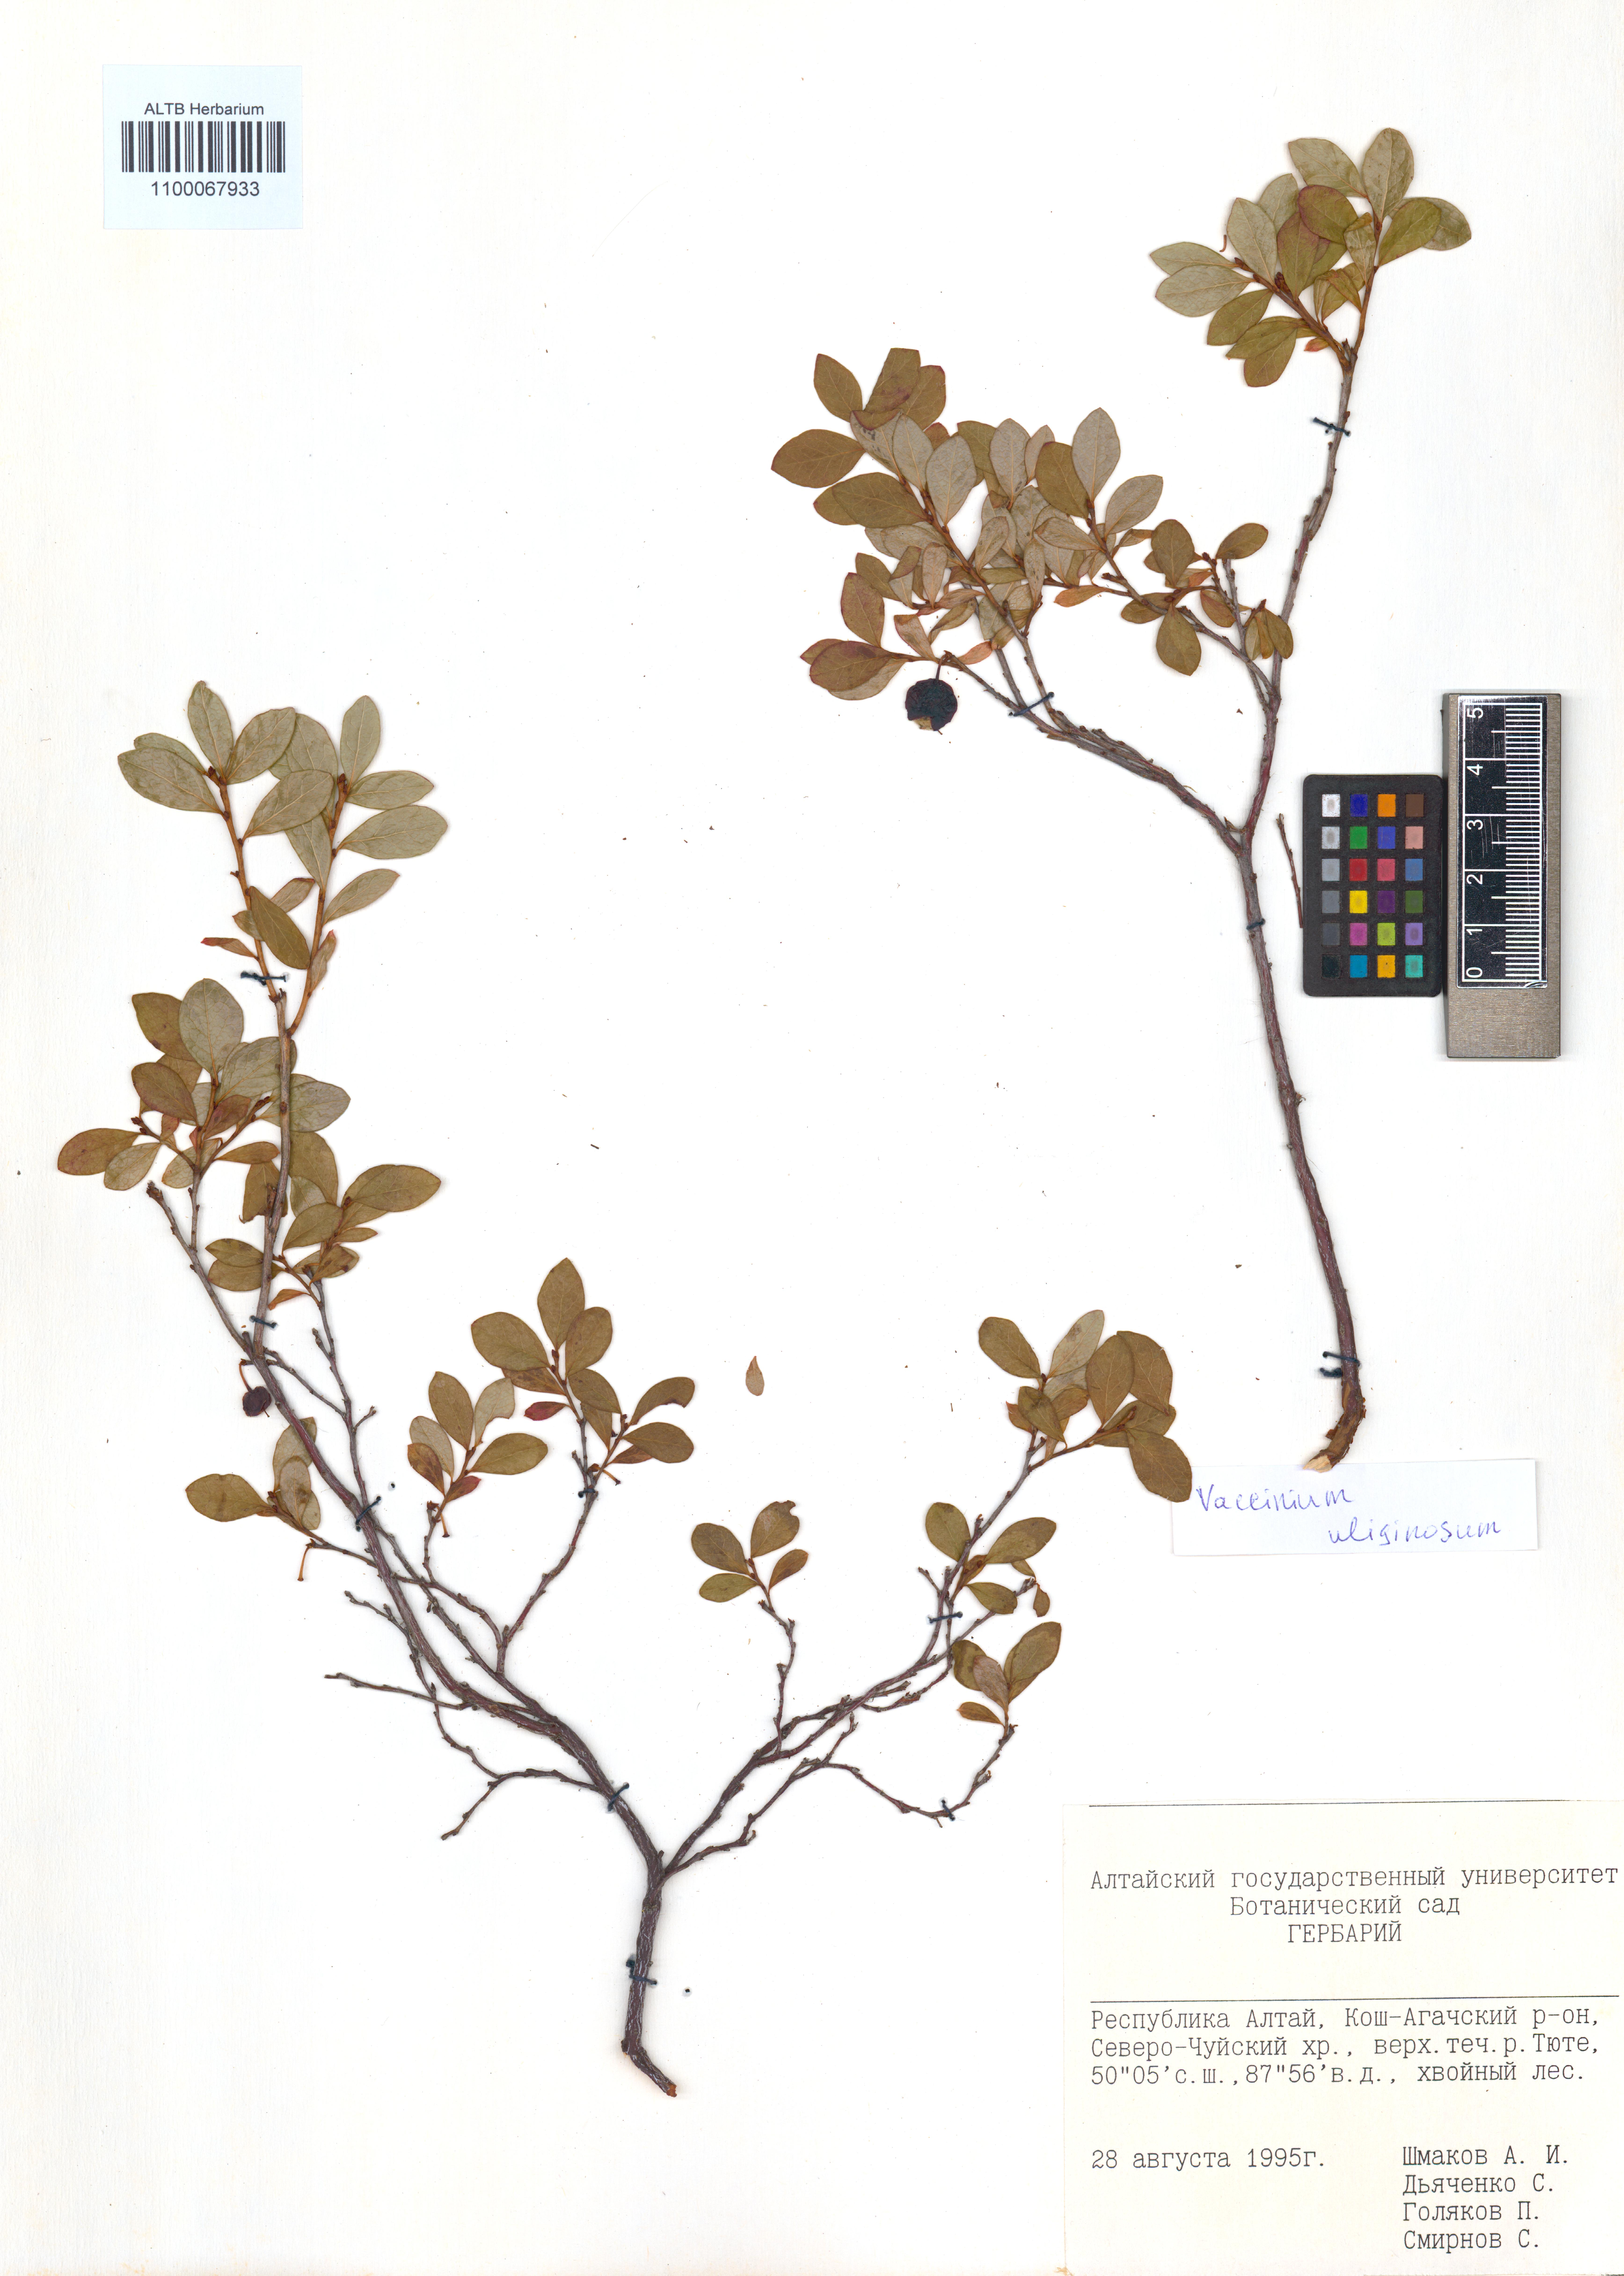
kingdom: Plantae
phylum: Tracheophyta
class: Magnoliopsida
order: Ericales
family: Ericaceae
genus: Vaccinium
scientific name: Vaccinium uliginosum
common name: Bog bilberry
